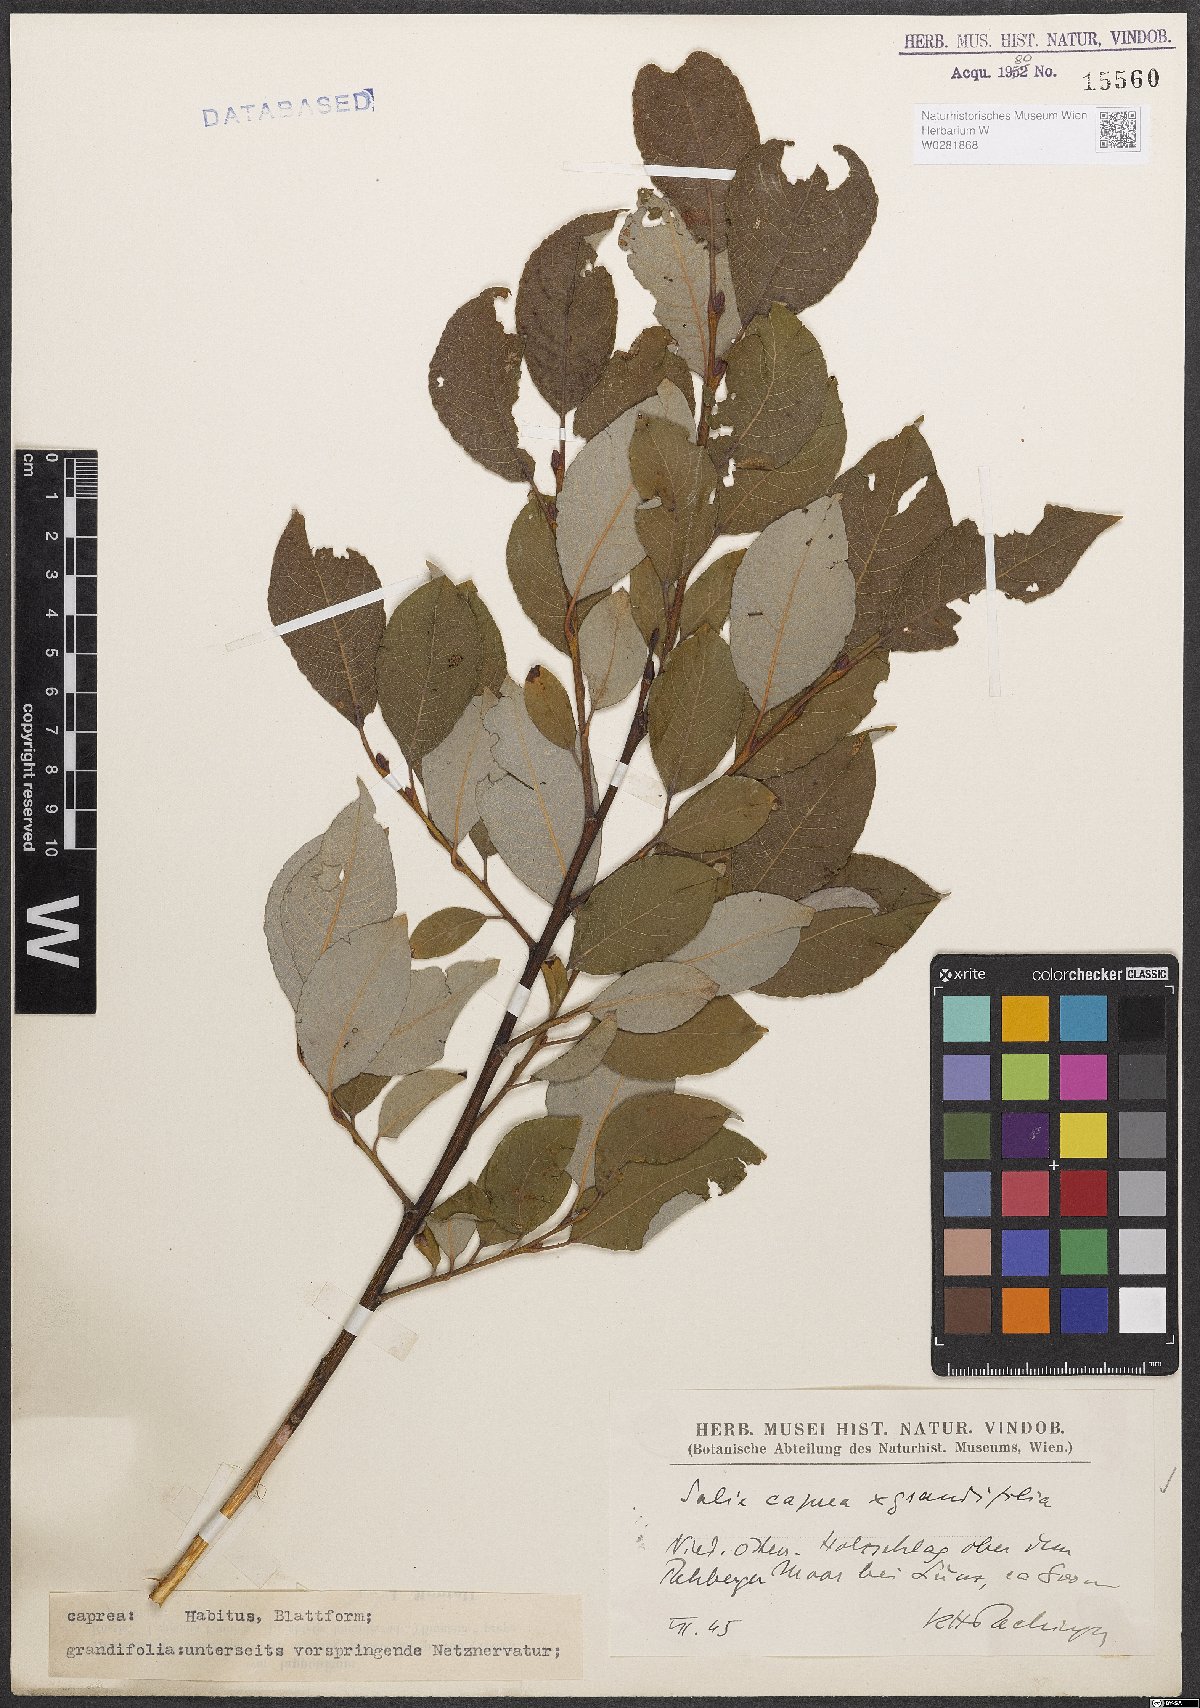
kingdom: Plantae
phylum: Tracheophyta
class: Magnoliopsida
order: Malpighiales
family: Salicaceae
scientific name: Salicaceae
